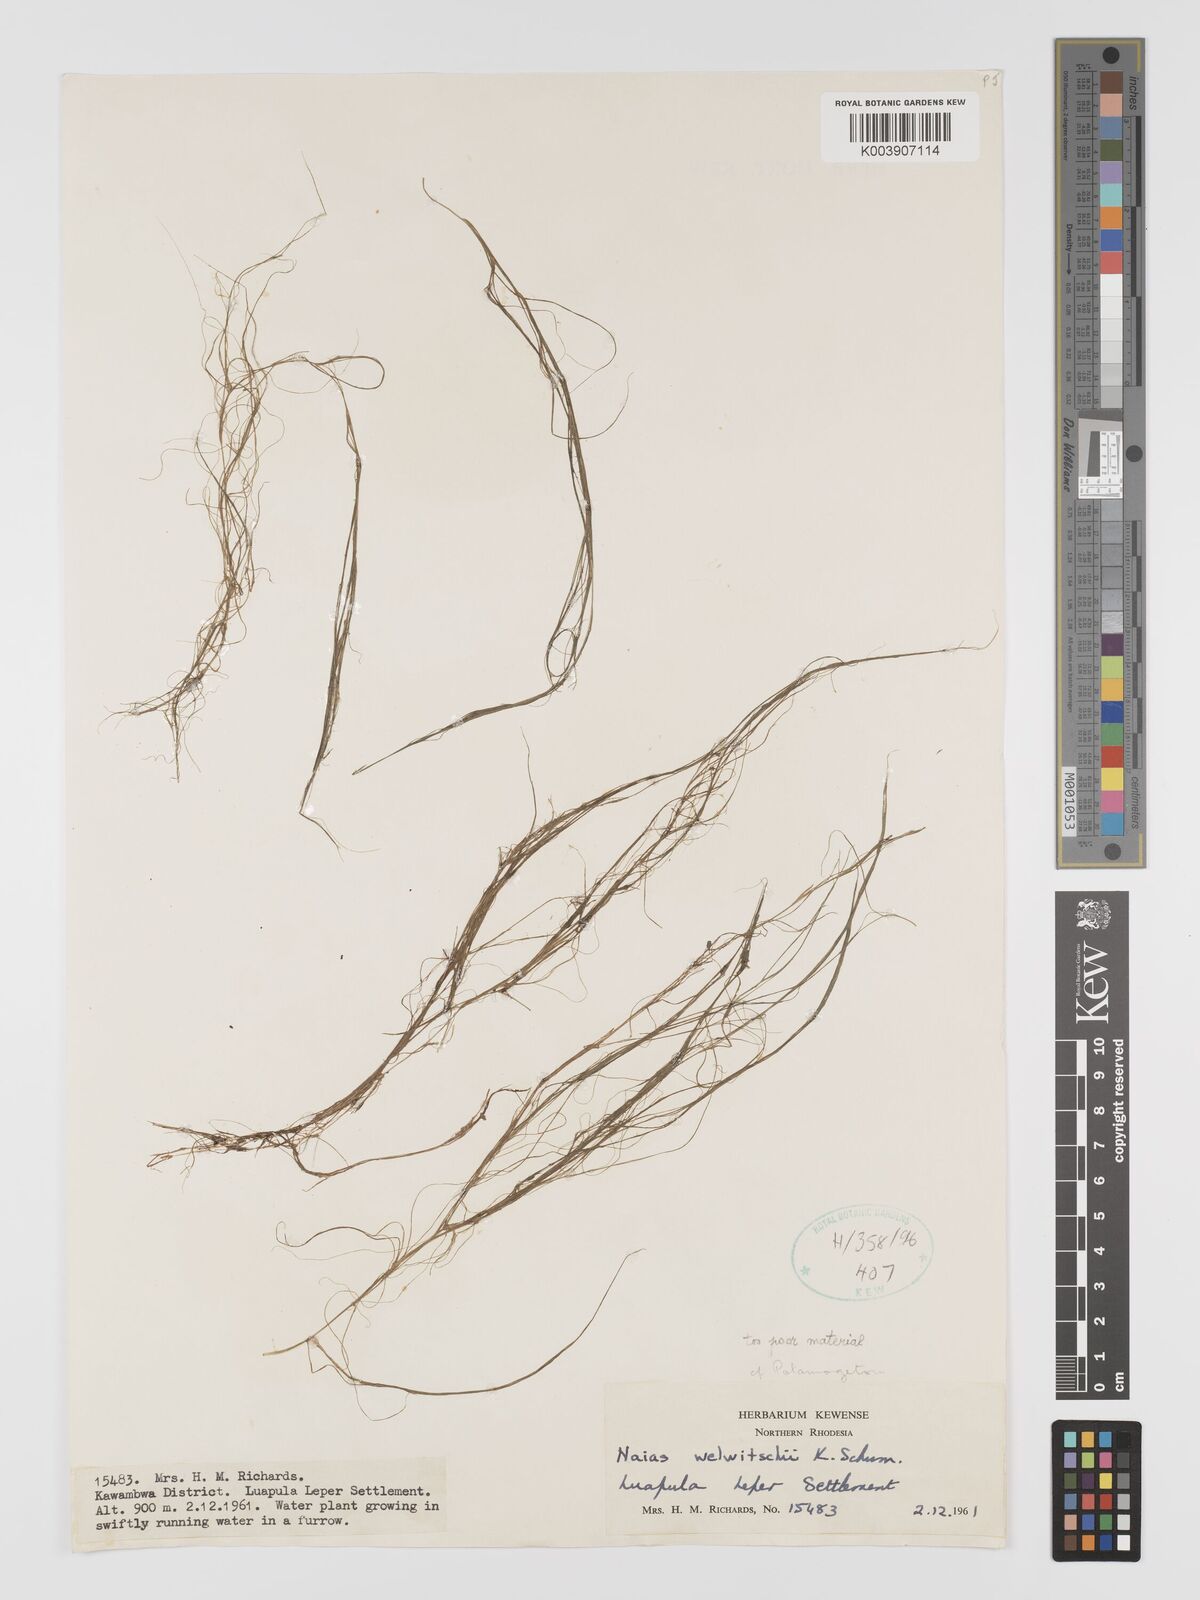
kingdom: Plantae
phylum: Tracheophyta
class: Liliopsida
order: Alismatales
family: Potamogetonaceae
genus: Potamogeton
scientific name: Potamogeton
